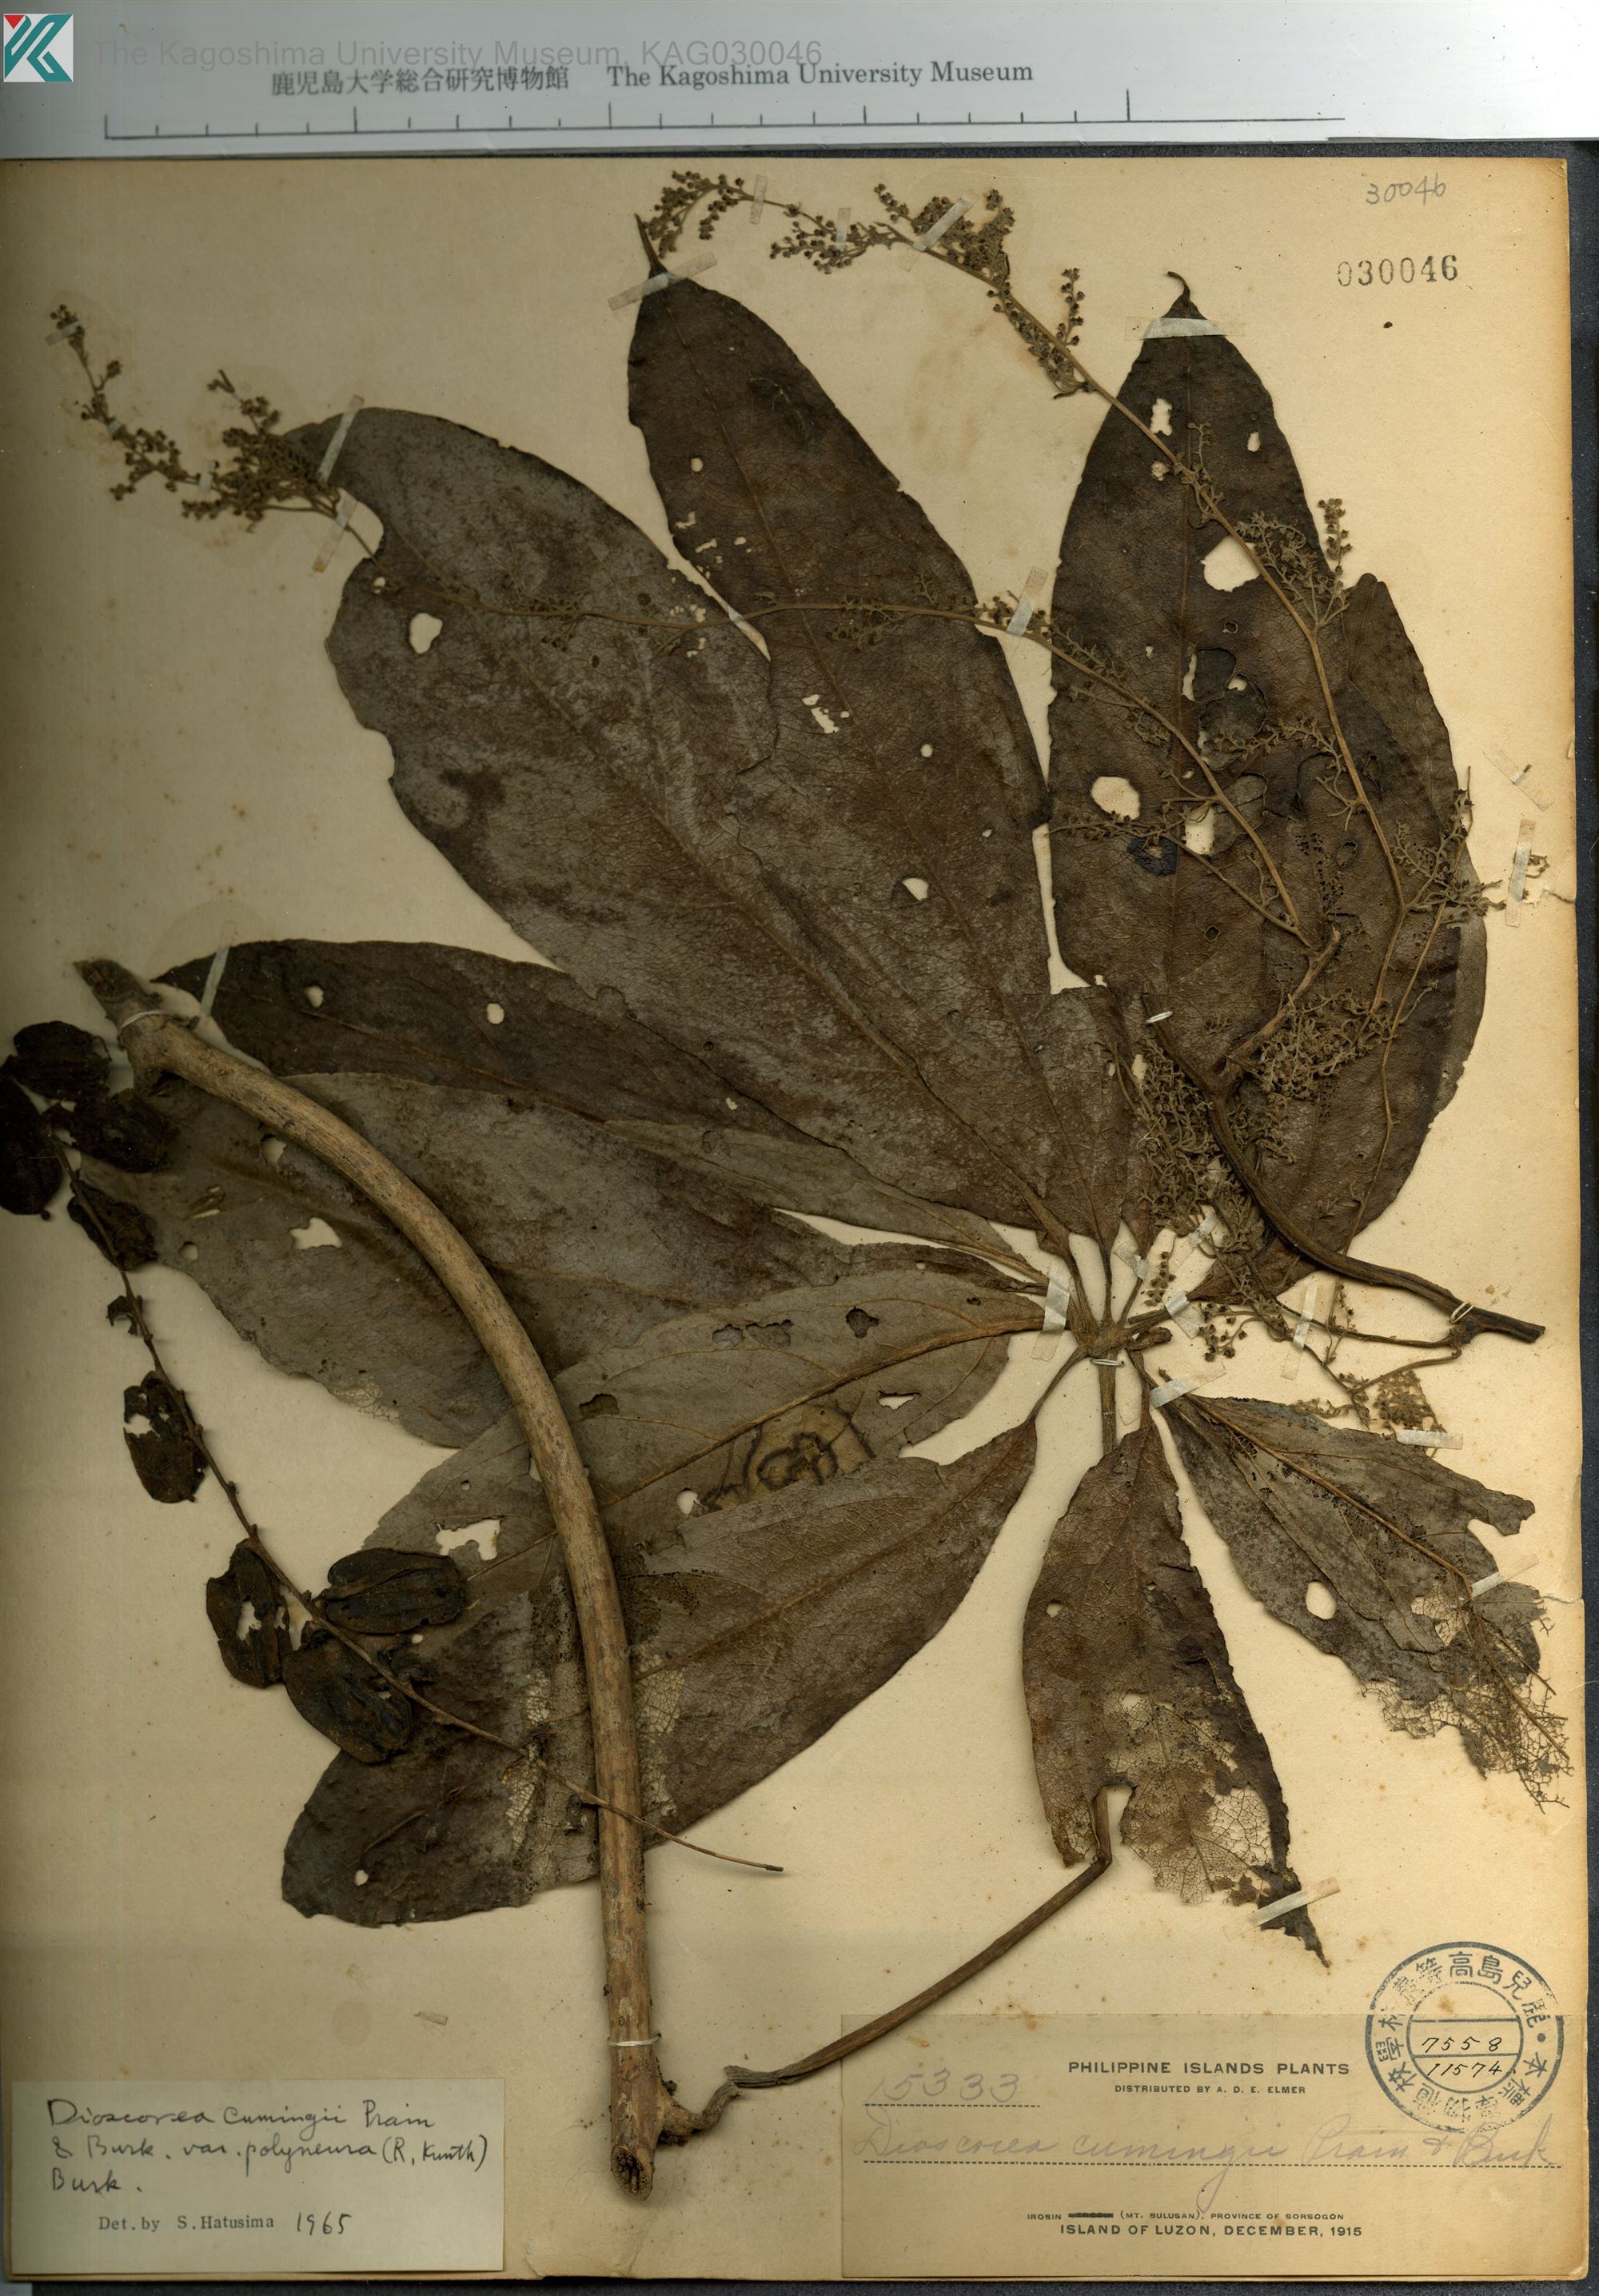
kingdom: Plantae
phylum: Tracheophyta
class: Liliopsida
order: Dioscoreales
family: Dioscoreaceae
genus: Dioscorea
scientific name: Dioscorea cumingii
